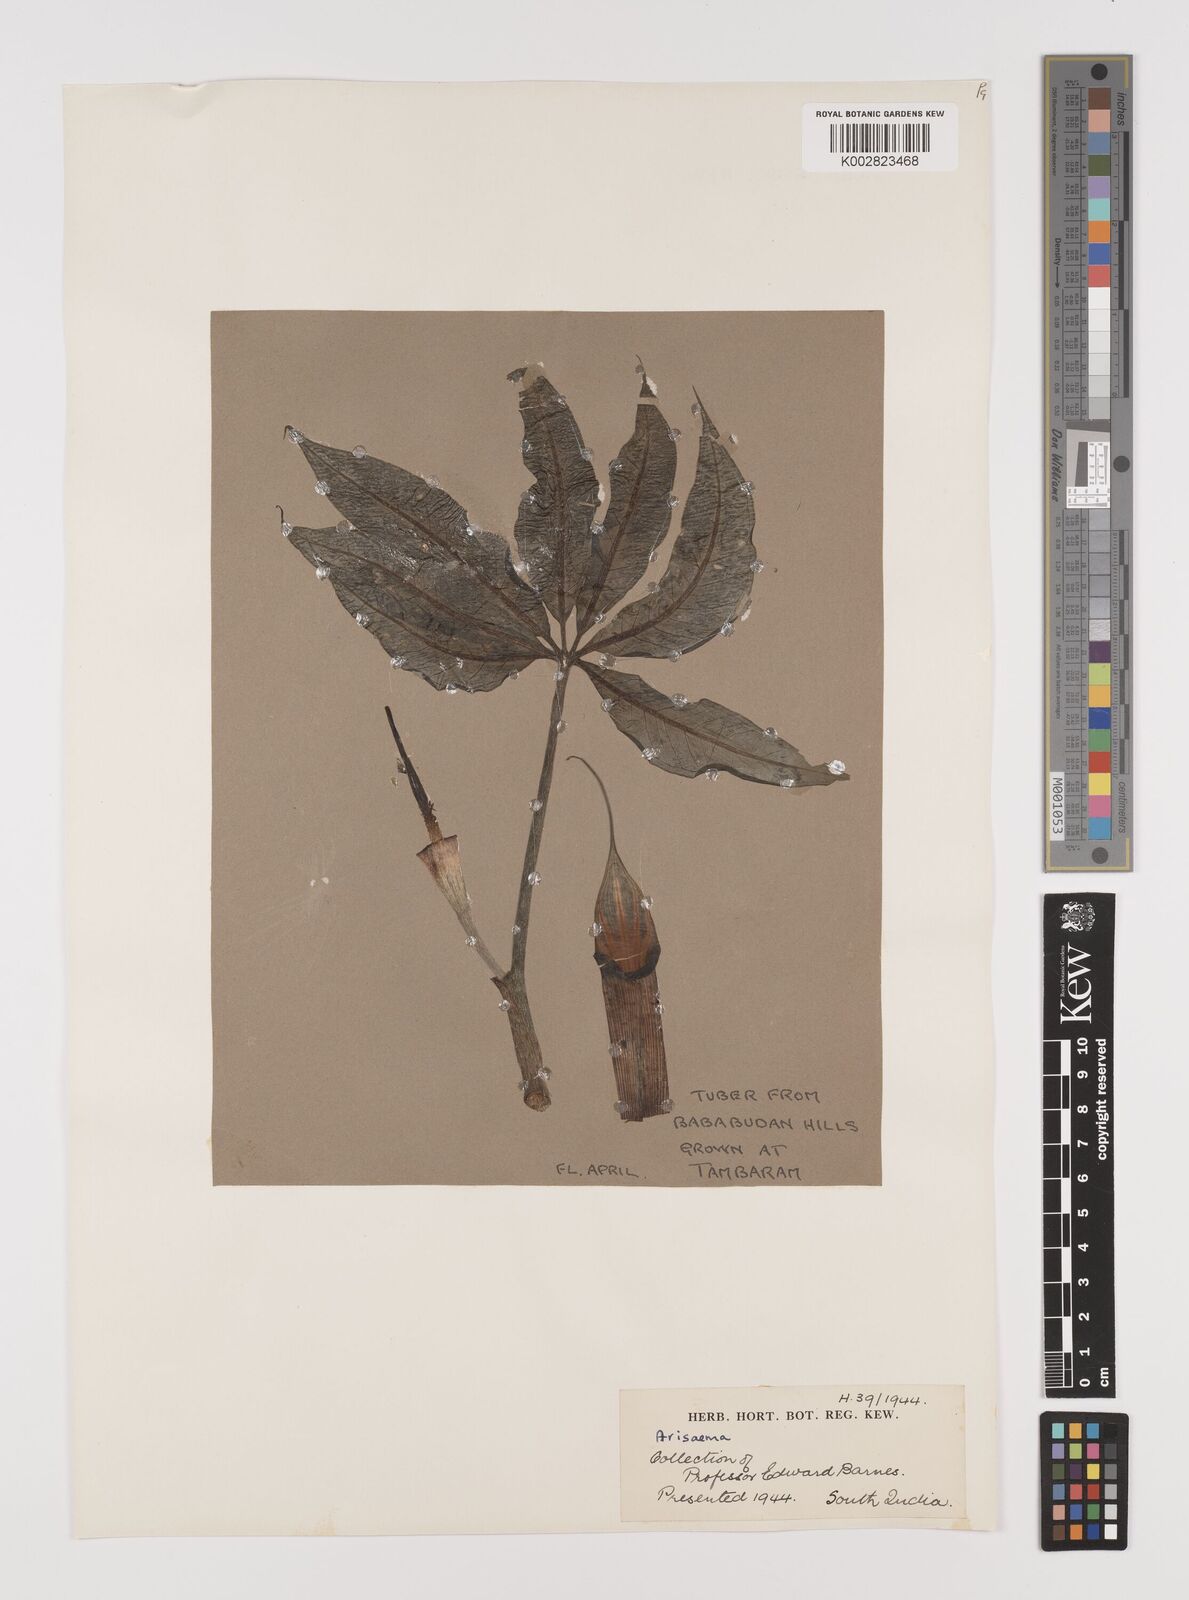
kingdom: Plantae
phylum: Tracheophyta
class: Liliopsida
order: Alismatales
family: Araceae
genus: Arisaema
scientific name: Arisaema
